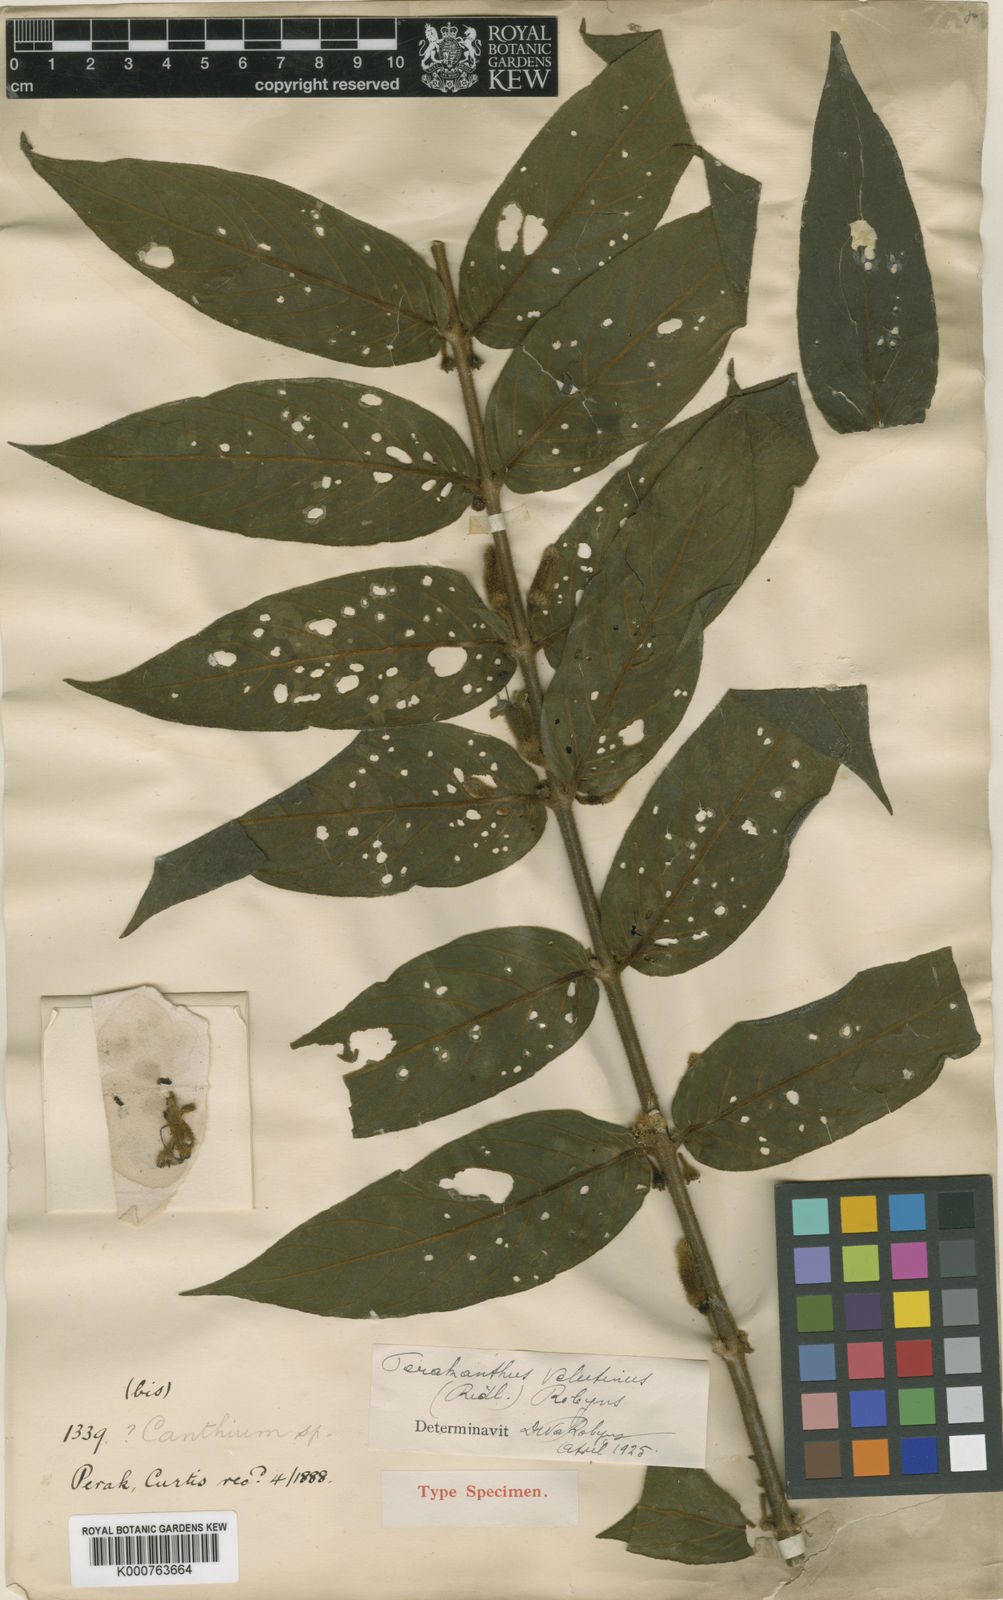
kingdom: Plantae
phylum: Tracheophyta
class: Magnoliopsida
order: Gentianales
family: Rubiaceae
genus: Perakanthus
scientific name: Perakanthus velutinus
